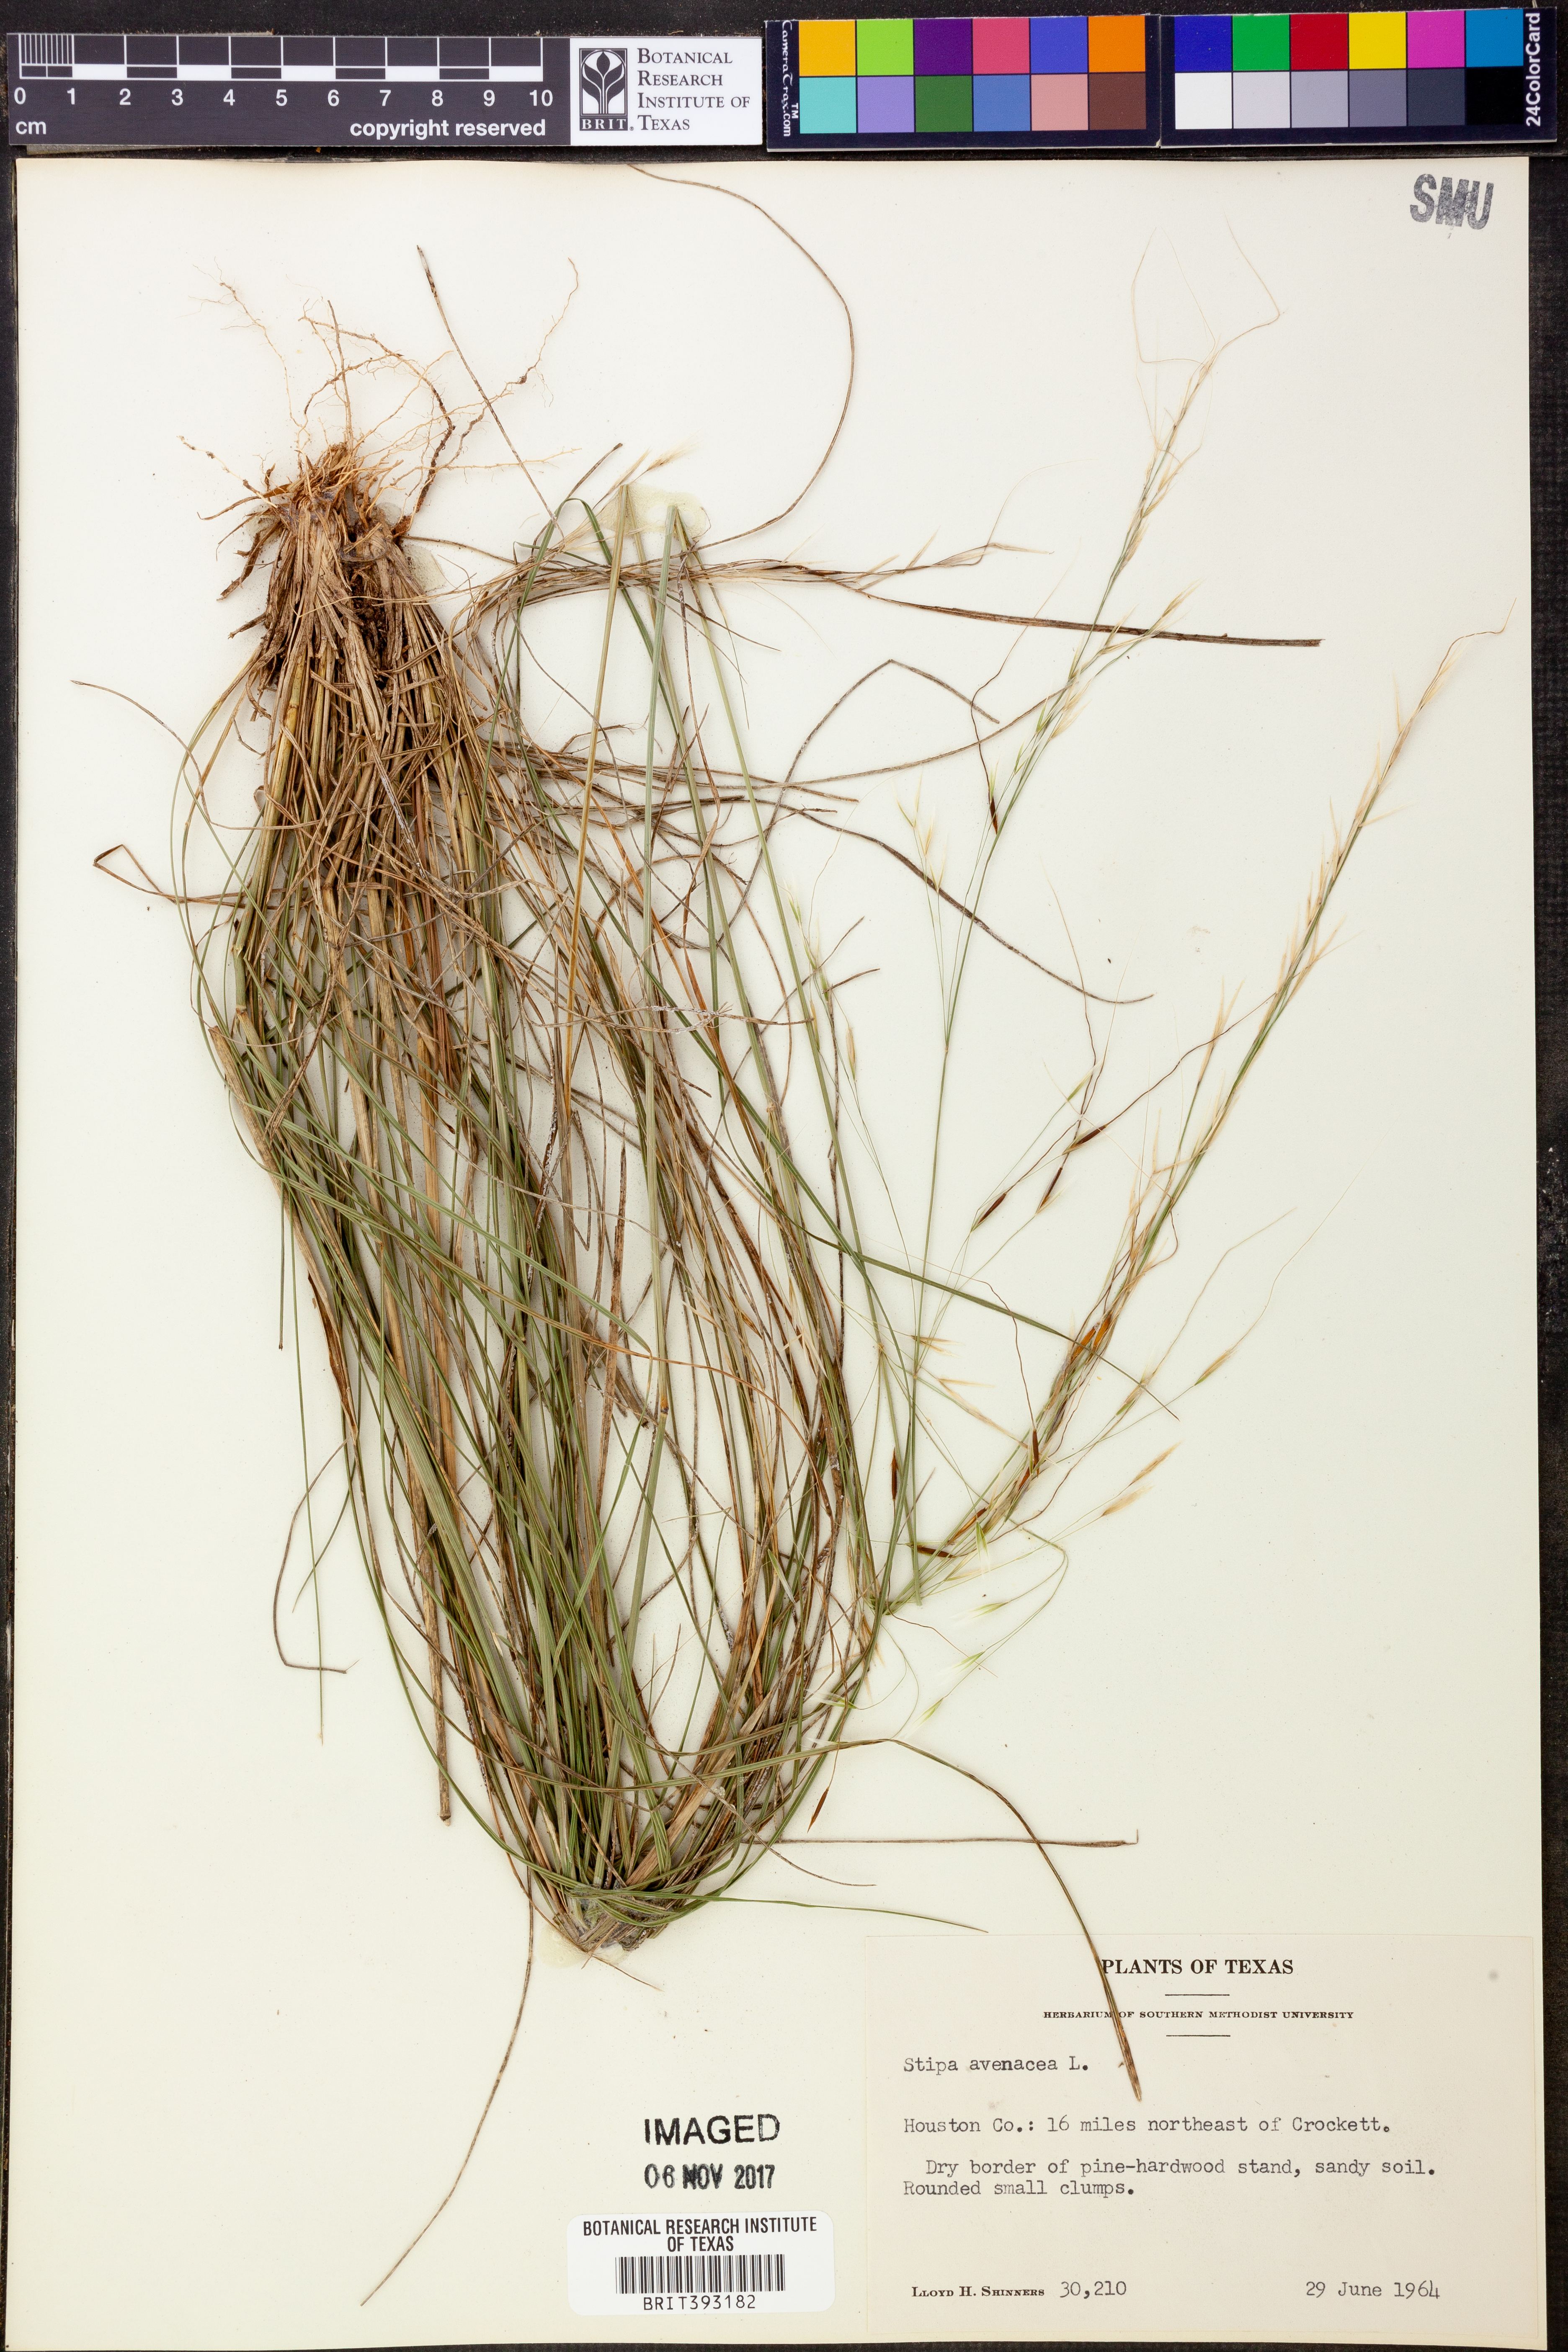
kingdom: Plantae
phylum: Tracheophyta
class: Liliopsida
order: Poales
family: Poaceae
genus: Piptochaetium
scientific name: Piptochaetium avenaceum
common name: Black bunchgrass
